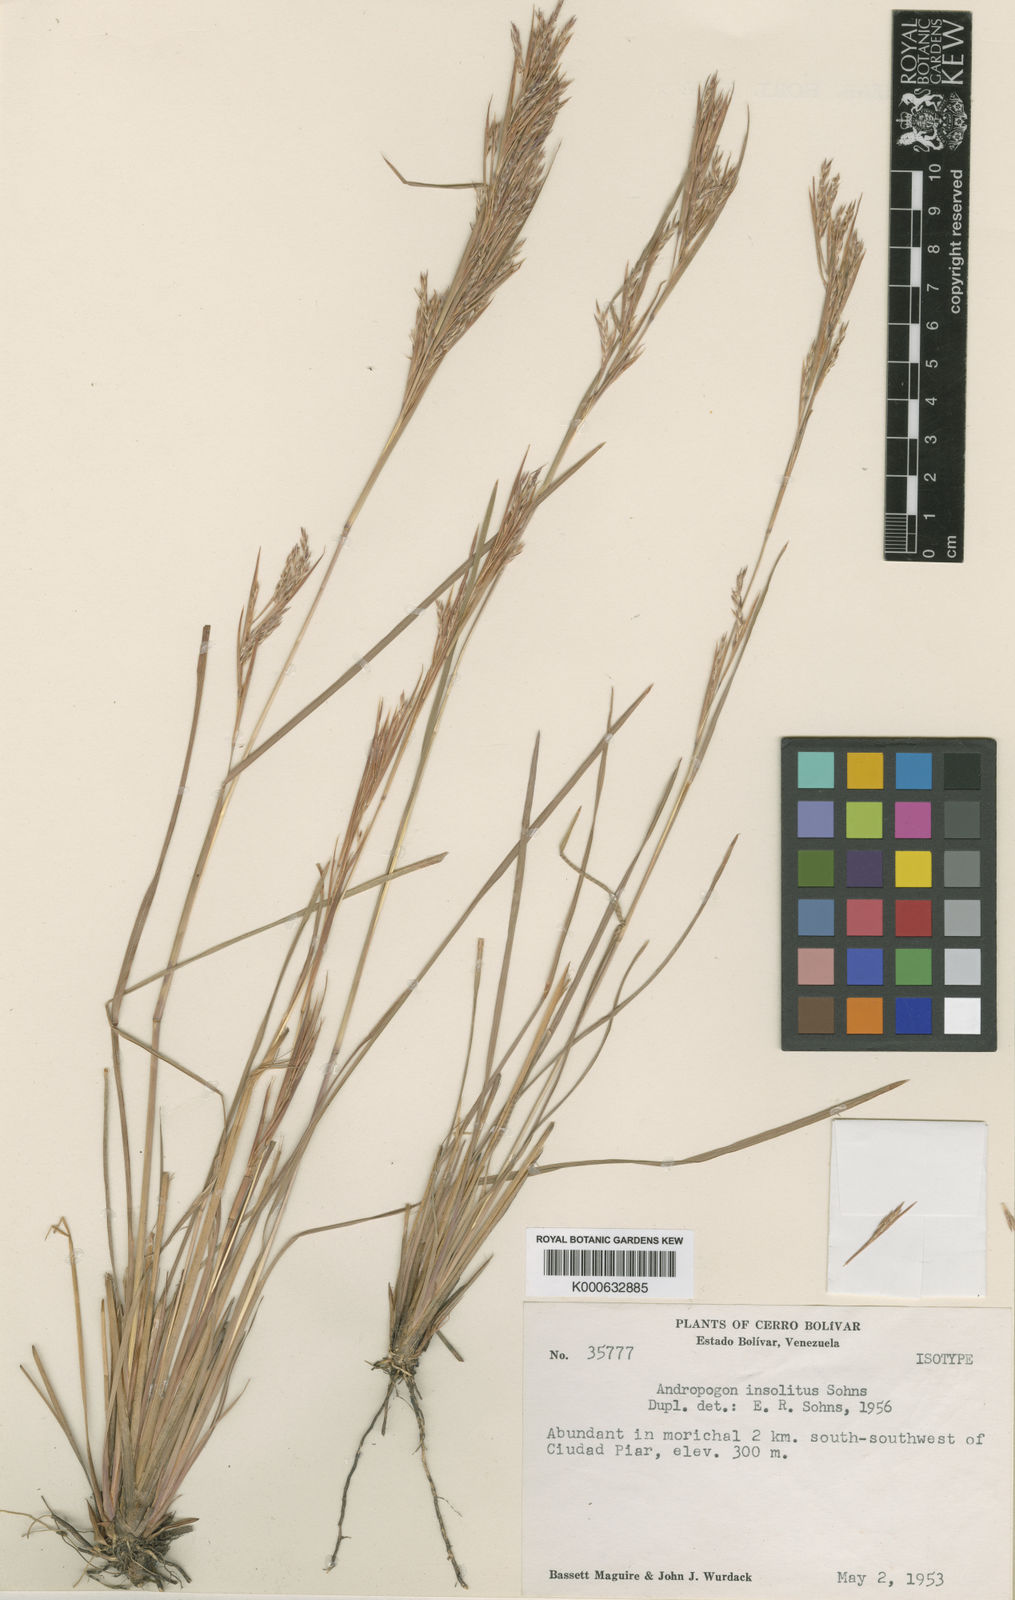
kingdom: Plantae
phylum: Tracheophyta
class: Liliopsida
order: Poales
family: Poaceae
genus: Andropogon
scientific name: Andropogon insolitus
